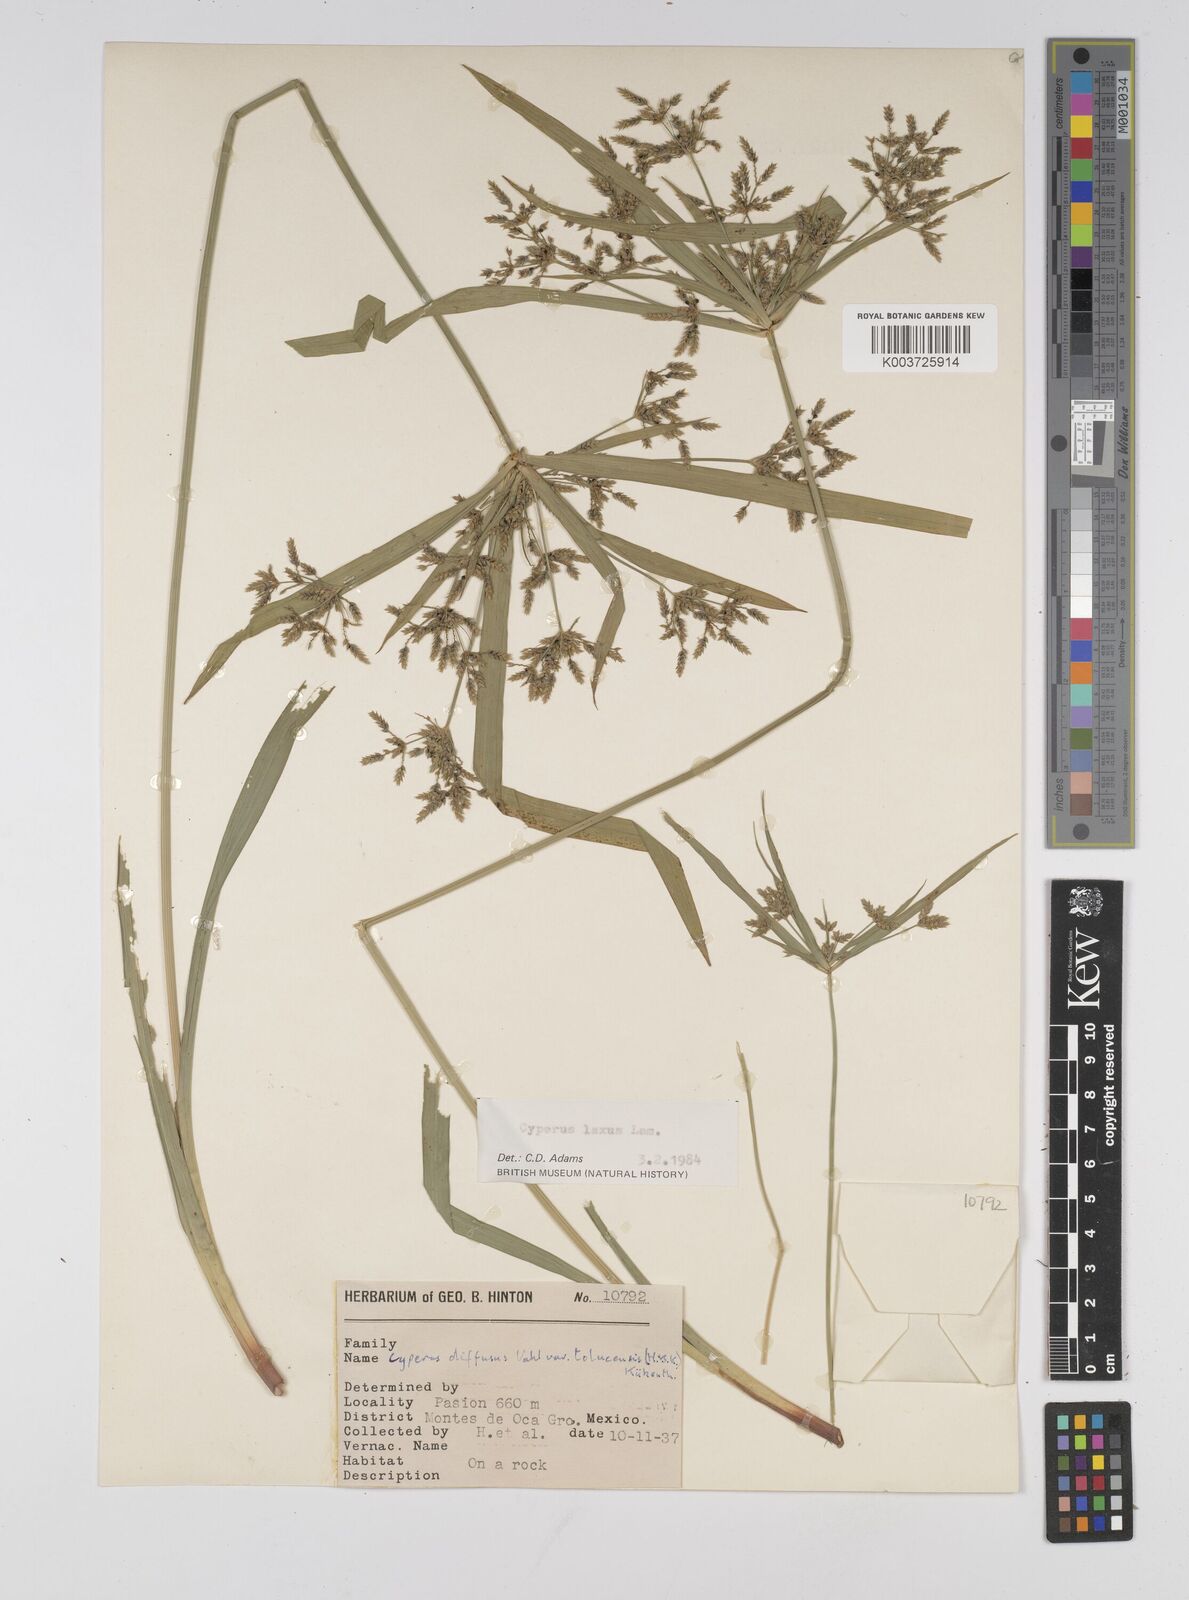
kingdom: Plantae
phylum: Tracheophyta
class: Liliopsida
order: Poales
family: Cyperaceae
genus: Cyperus
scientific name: Cyperus chalaranthus
